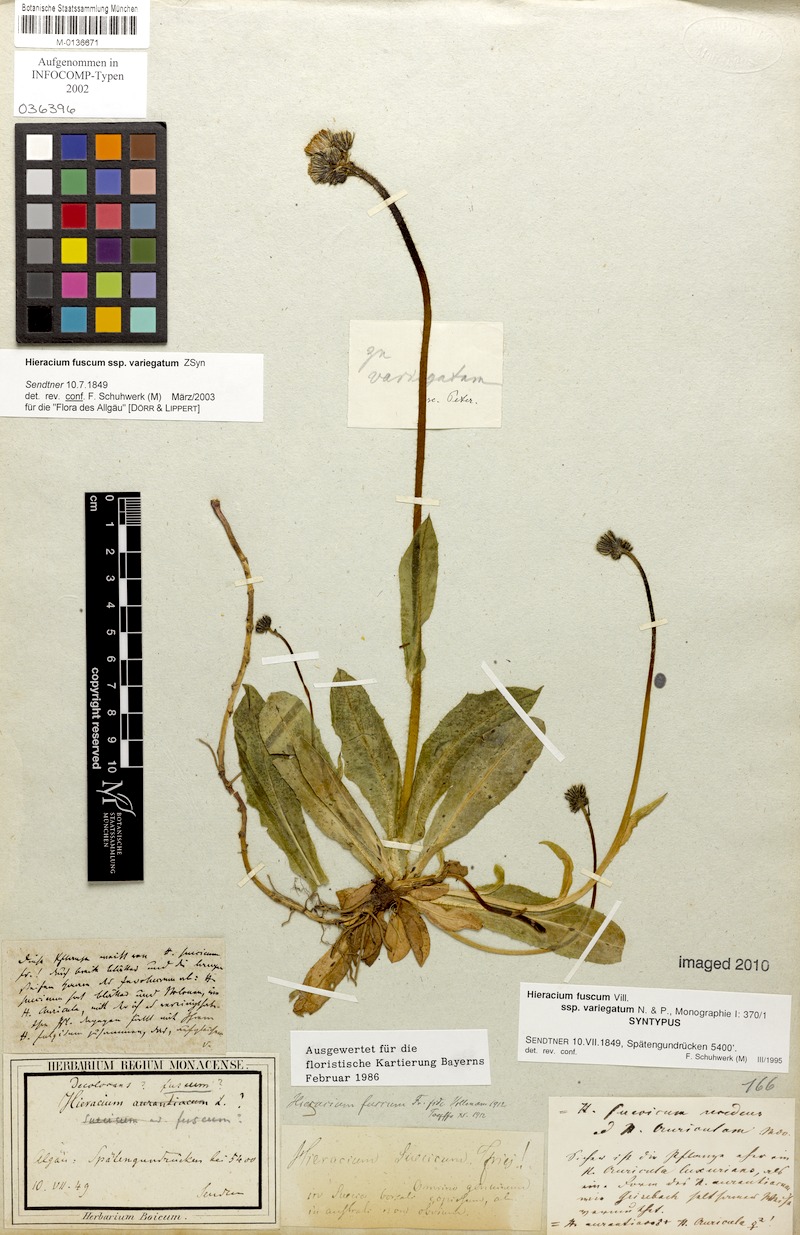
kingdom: Plantae
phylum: Tracheophyta
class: Magnoliopsida
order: Asterales
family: Asteraceae
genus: Pilosella
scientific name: Pilosella fusca
